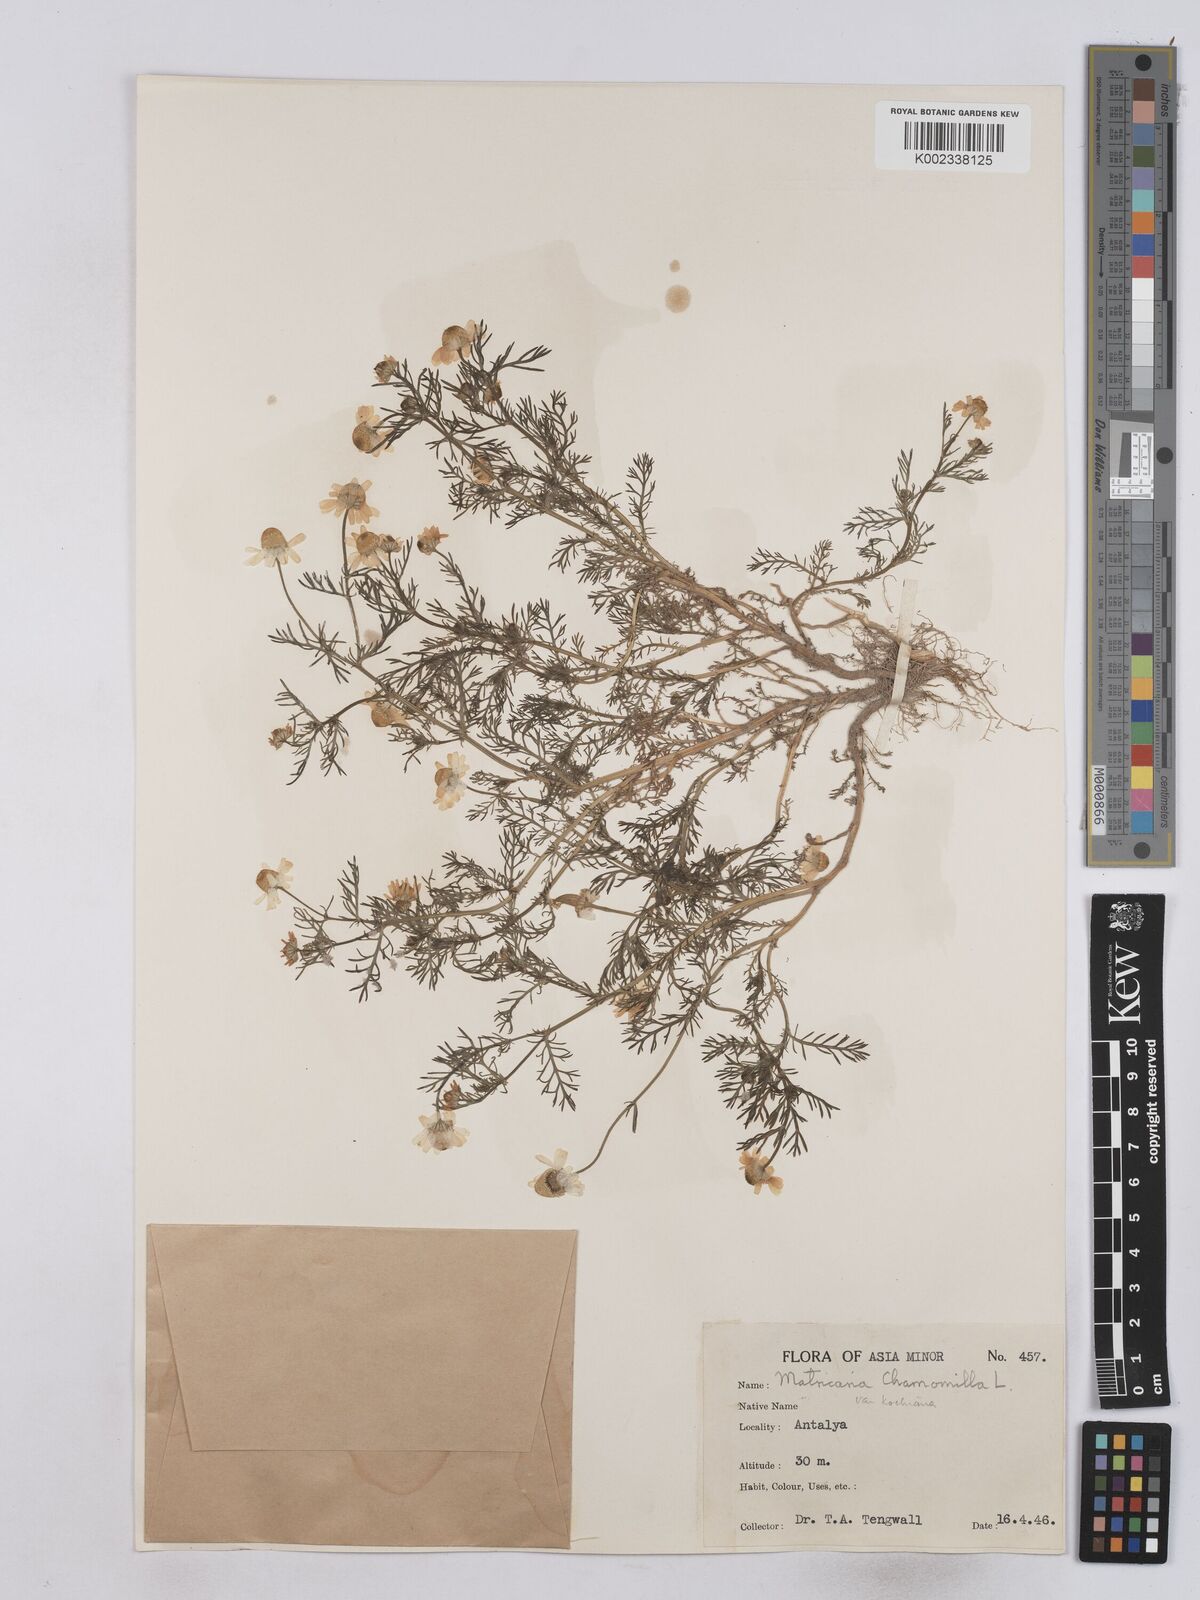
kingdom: Plantae
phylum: Tracheophyta
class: Magnoliopsida
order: Asterales
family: Asteraceae
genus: Matricaria
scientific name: Matricaria chamomilla
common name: Scented mayweed
